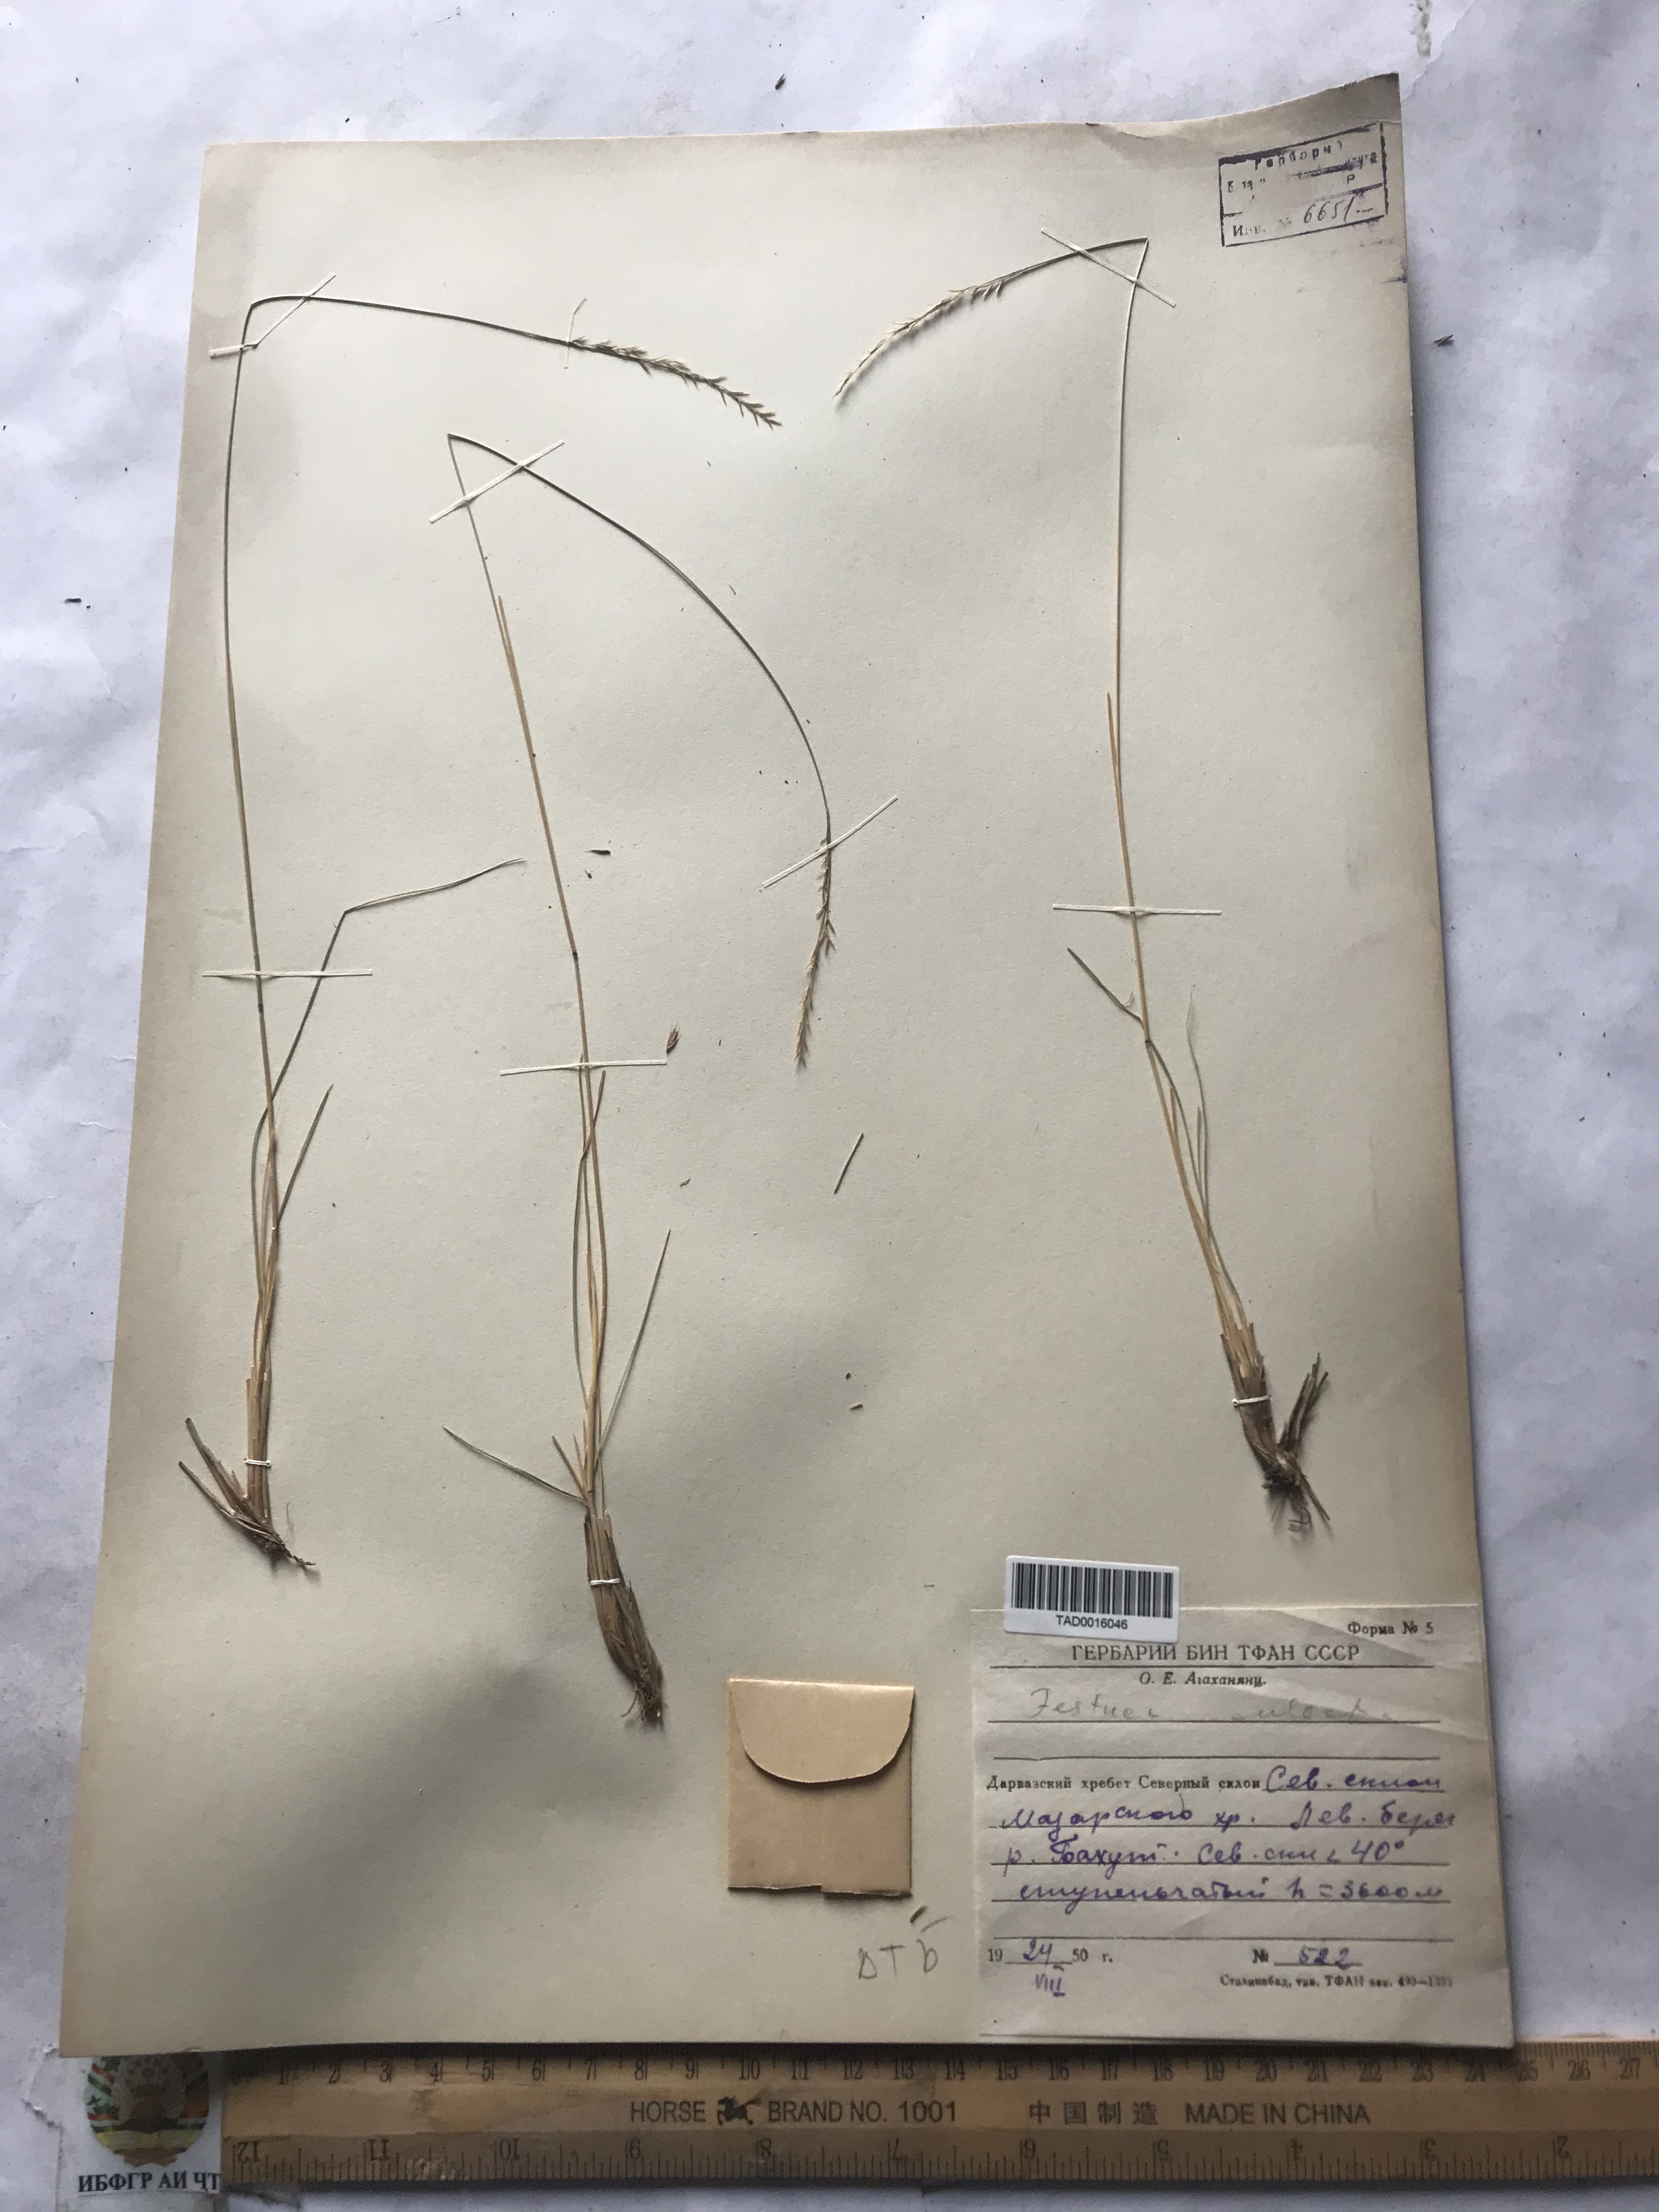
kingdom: Plantae
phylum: Tracheophyta
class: Liliopsida
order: Poales
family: Poaceae
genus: Festuca
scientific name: Festuca sulcata
